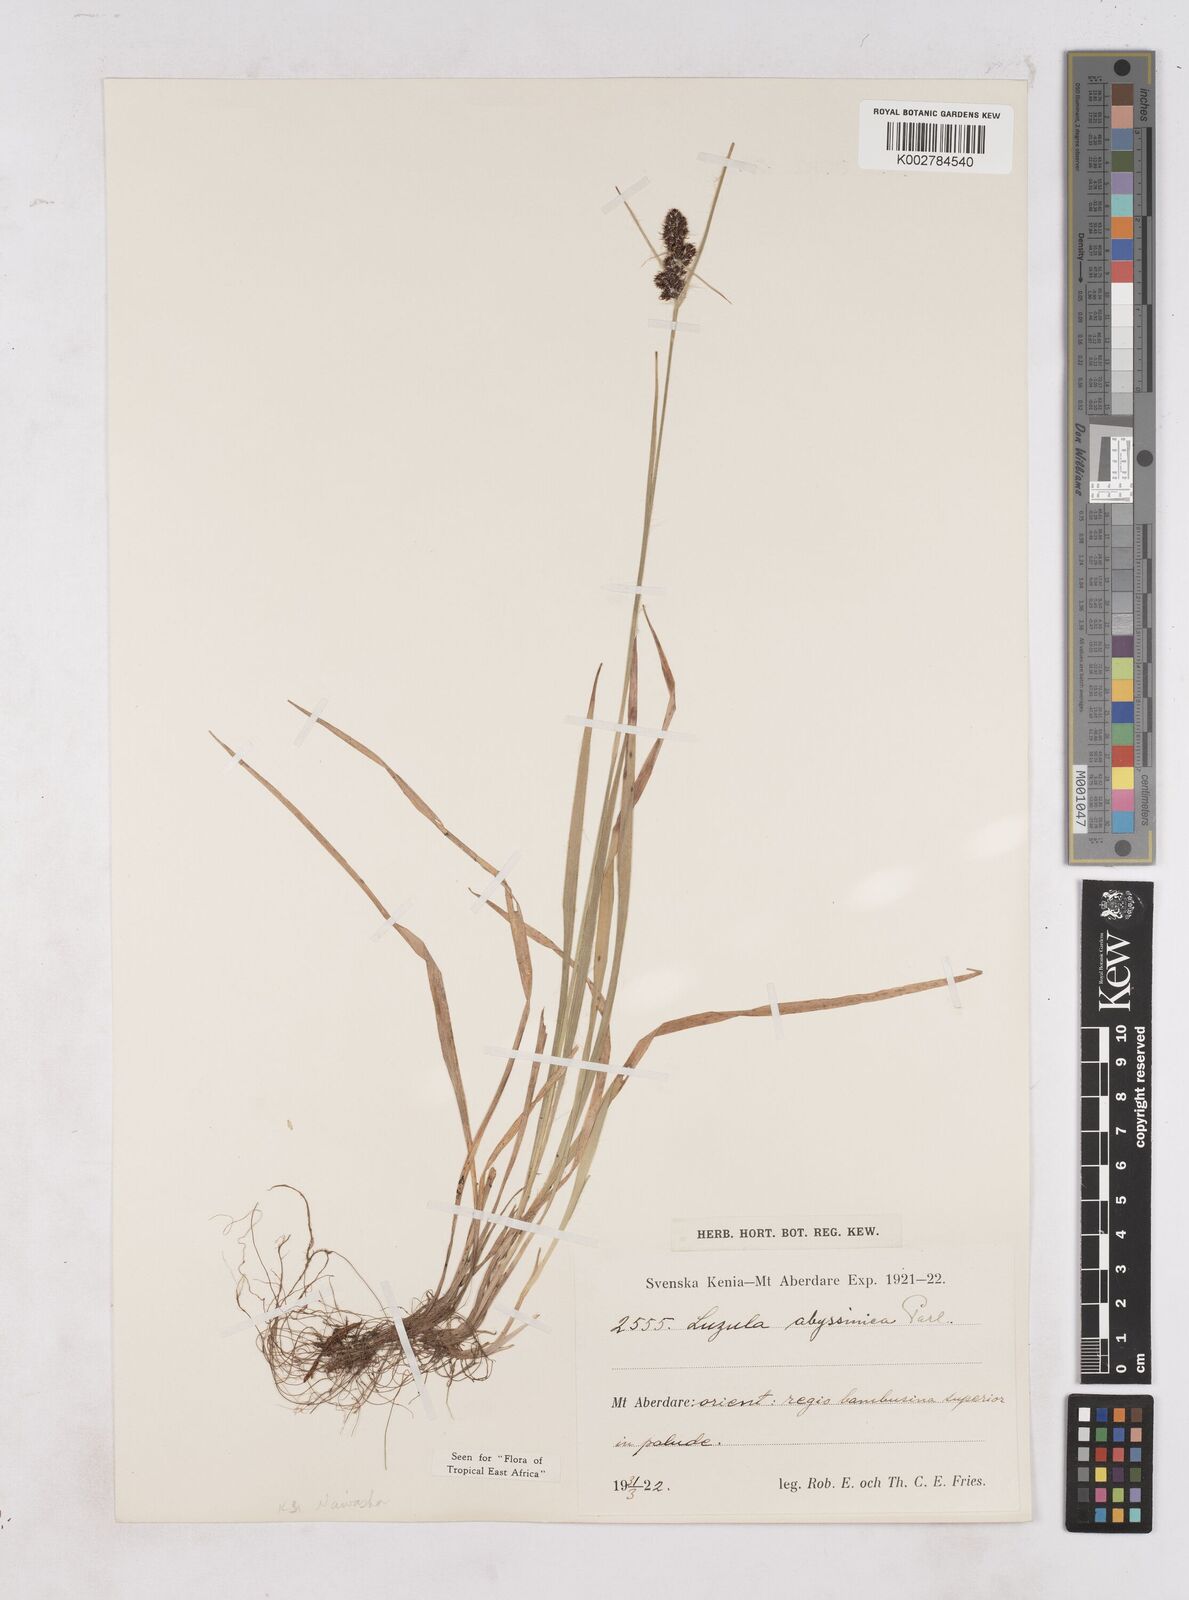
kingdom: Plantae
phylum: Tracheophyta
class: Liliopsida
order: Poales
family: Juncaceae
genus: Luzula
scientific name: Luzula abyssinica
